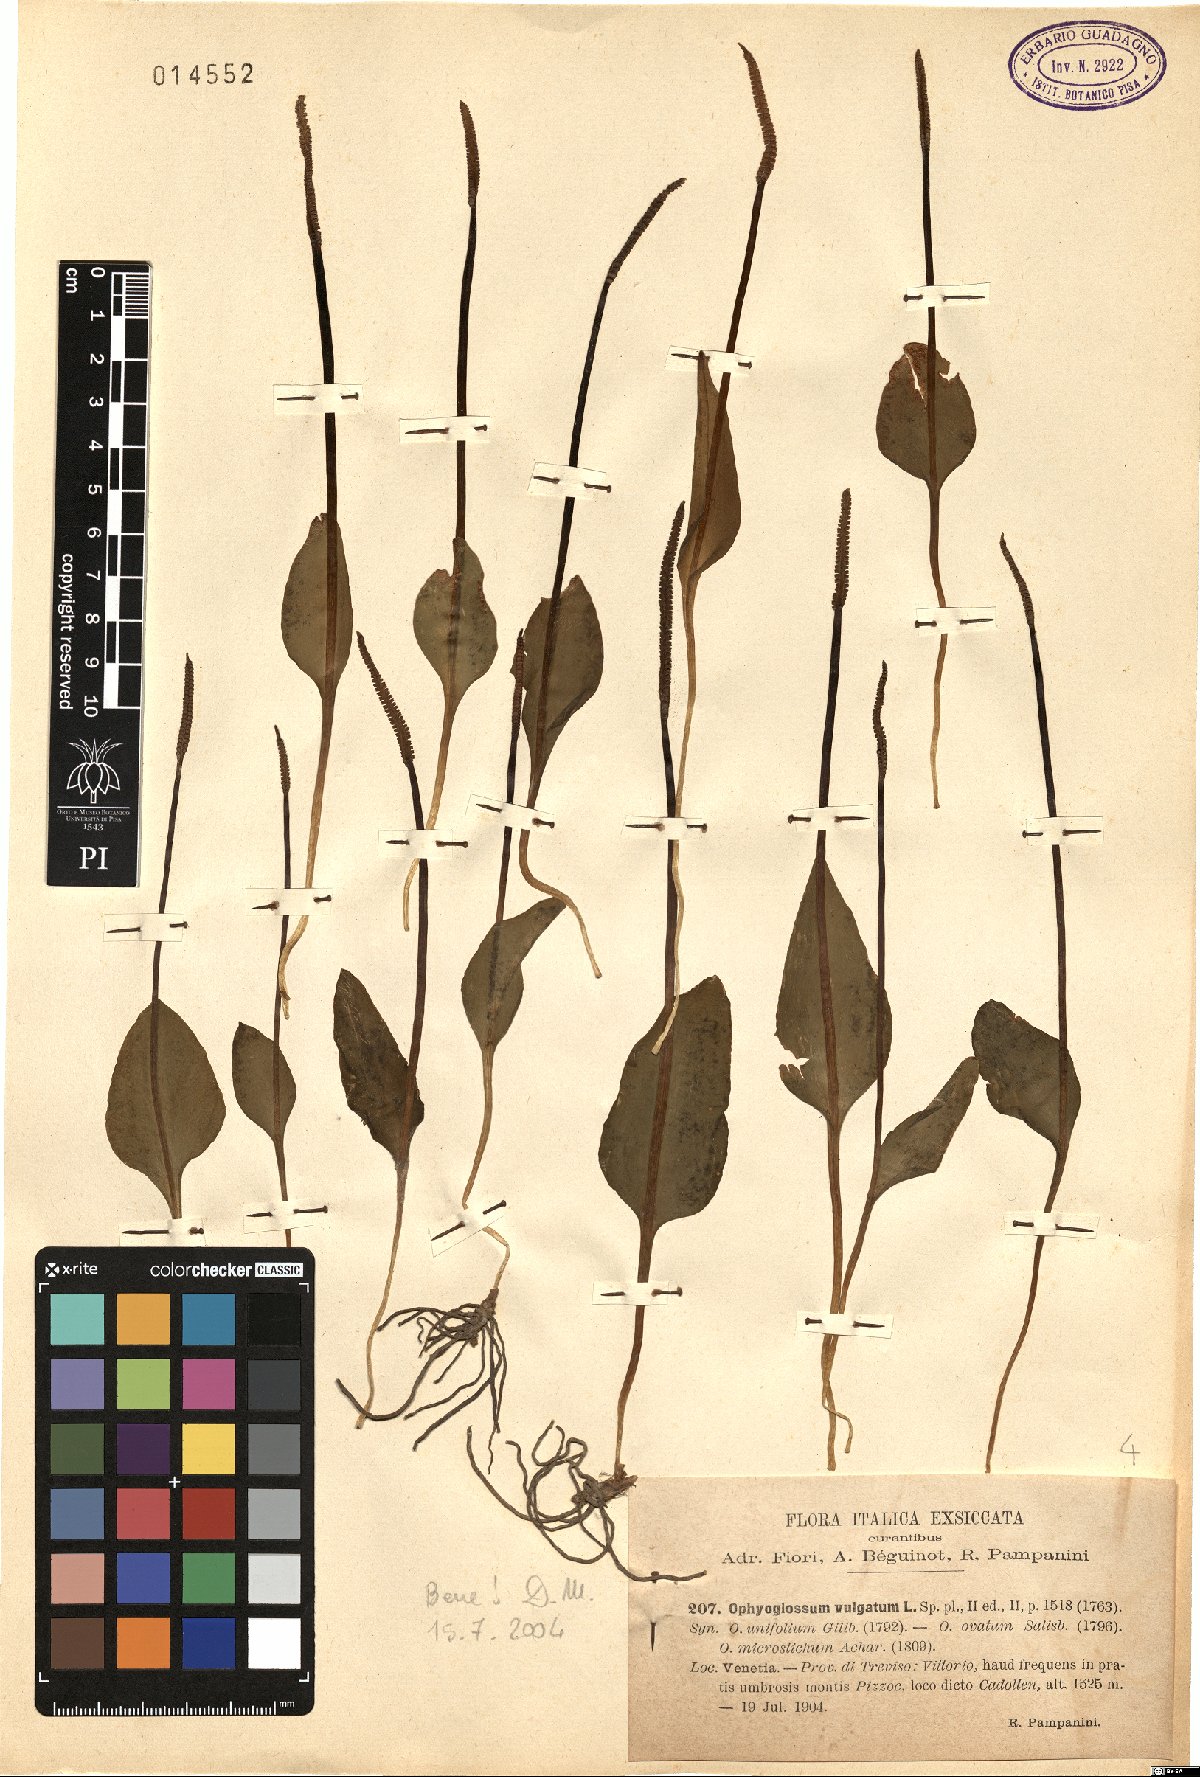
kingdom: Plantae
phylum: Tracheophyta
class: Polypodiopsida
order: Ophioglossales
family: Ophioglossaceae
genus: Ophioglossum
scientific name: Ophioglossum vulgatum
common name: Adder's-tongue
